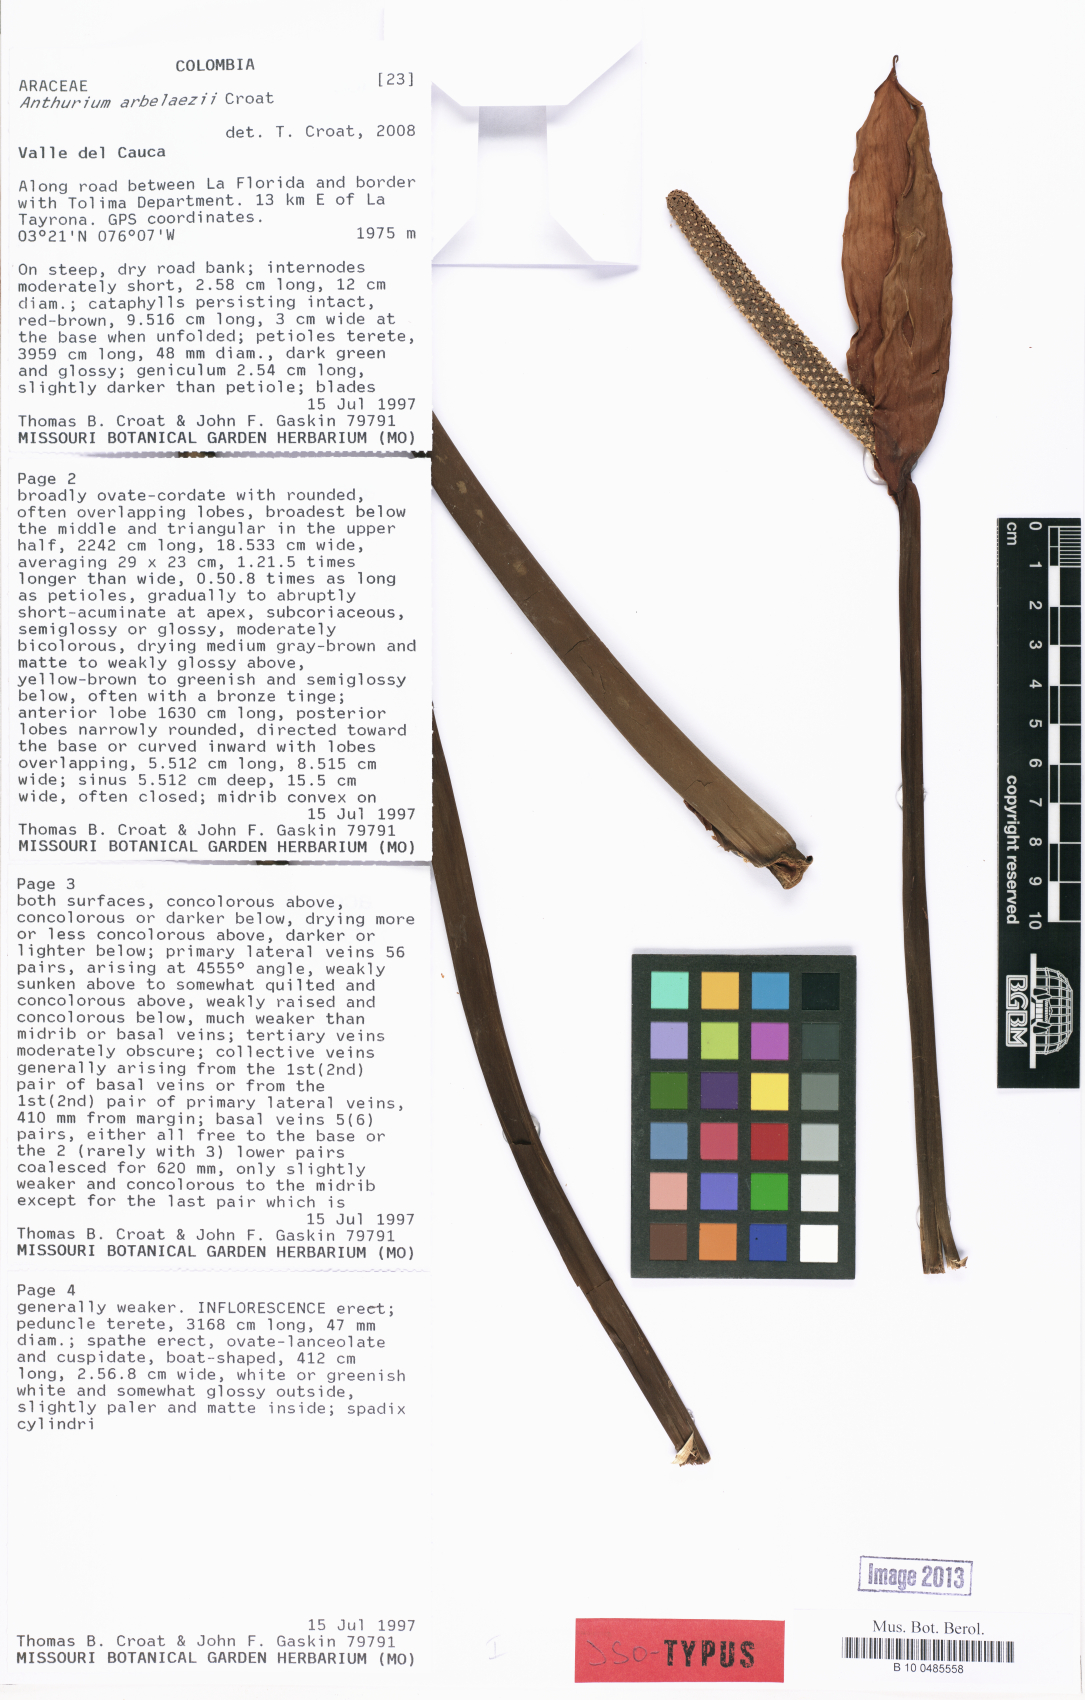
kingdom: Plantae
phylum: Tracheophyta
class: Liliopsida
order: Alismatales
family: Araceae
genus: Anthurium
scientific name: Anthurium arbelaezii
